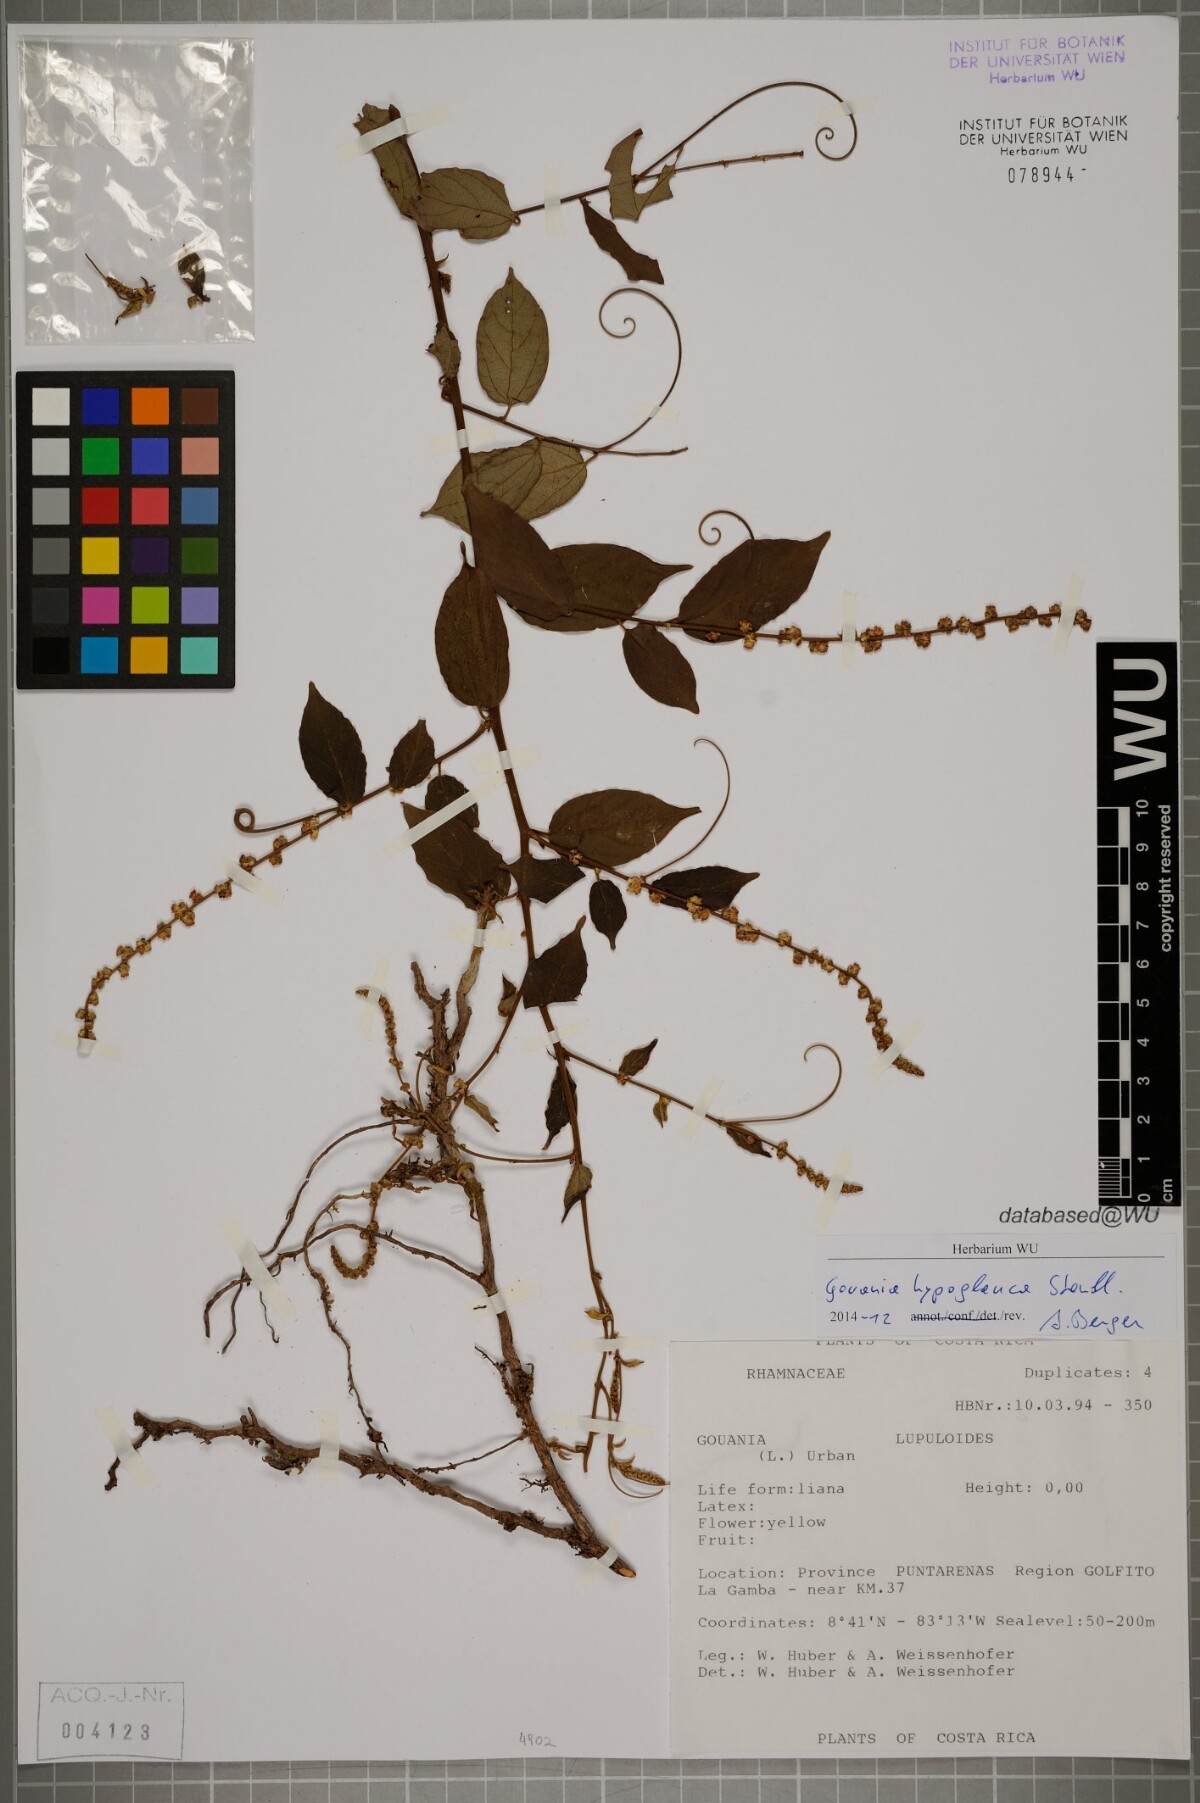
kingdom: Plantae
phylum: Tracheophyta
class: Magnoliopsida
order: Rosales
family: Rhamnaceae
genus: Gouania
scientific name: Gouania hypoglauca
